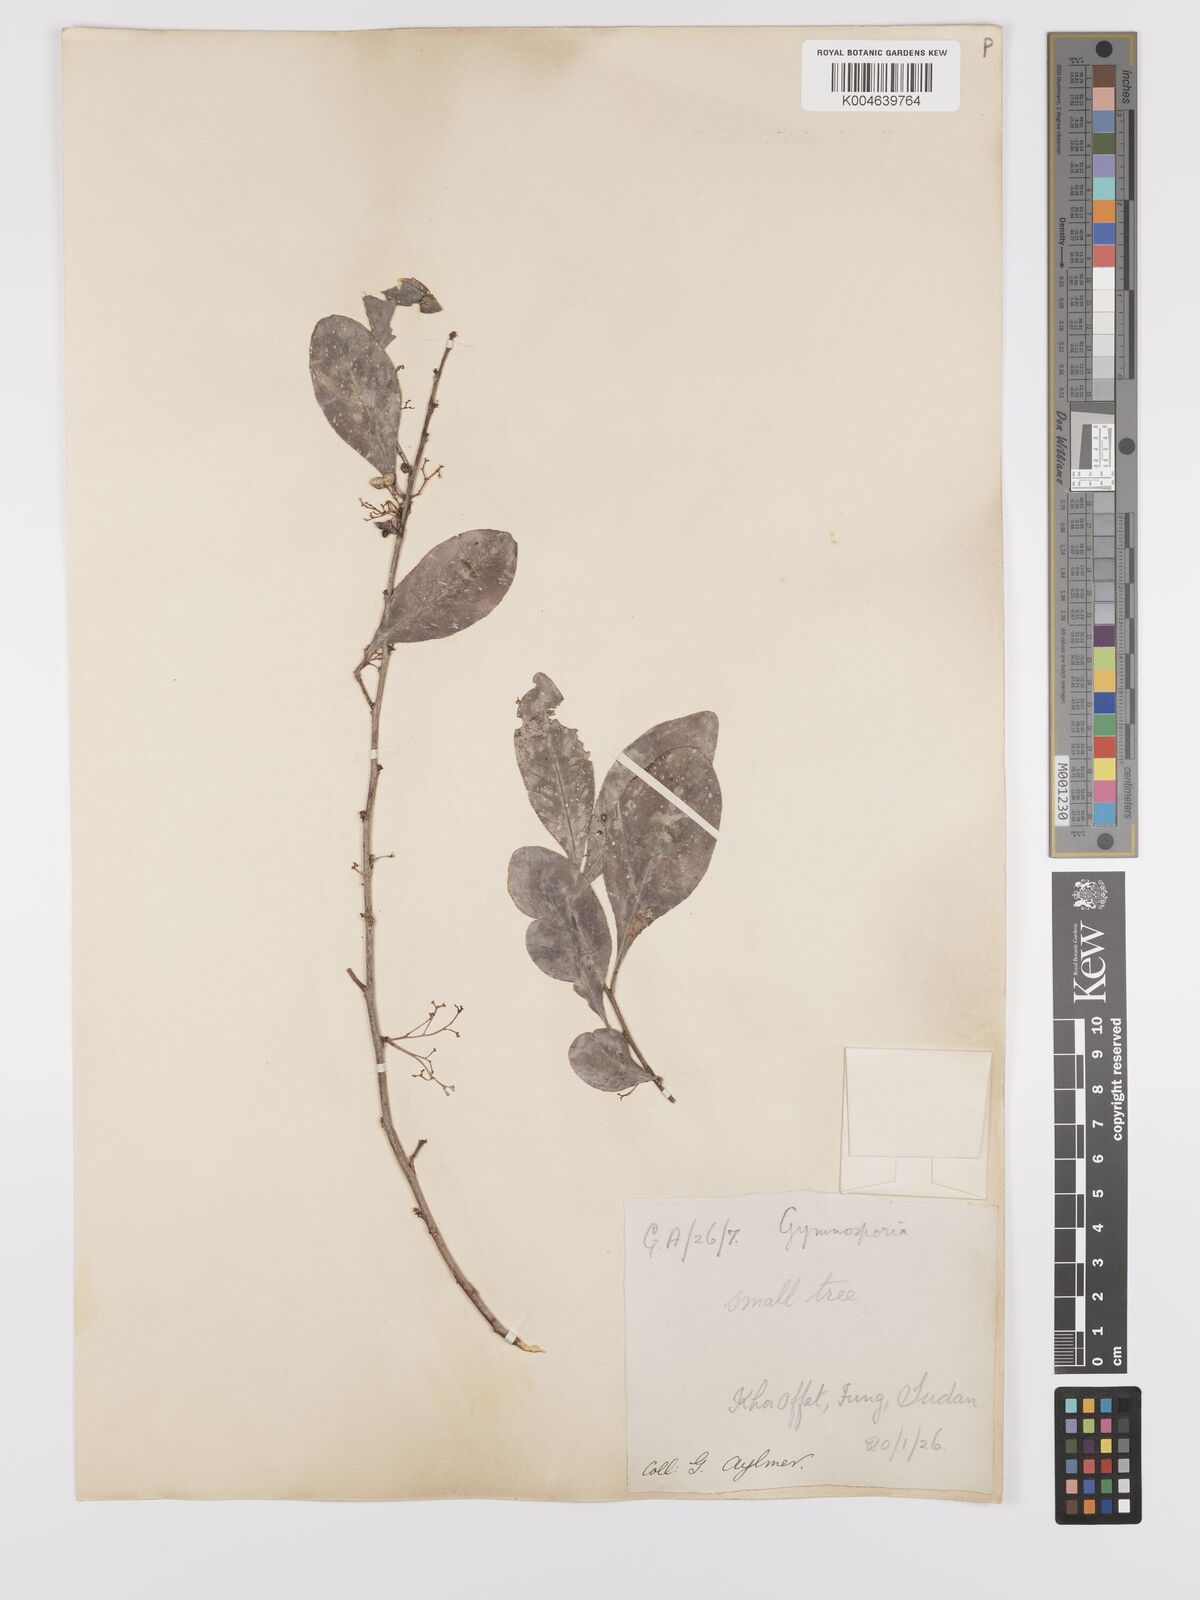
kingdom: Plantae
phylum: Tracheophyta
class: Magnoliopsida
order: Celastrales
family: Celastraceae
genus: Gymnosporia
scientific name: Gymnosporia senegalensis
